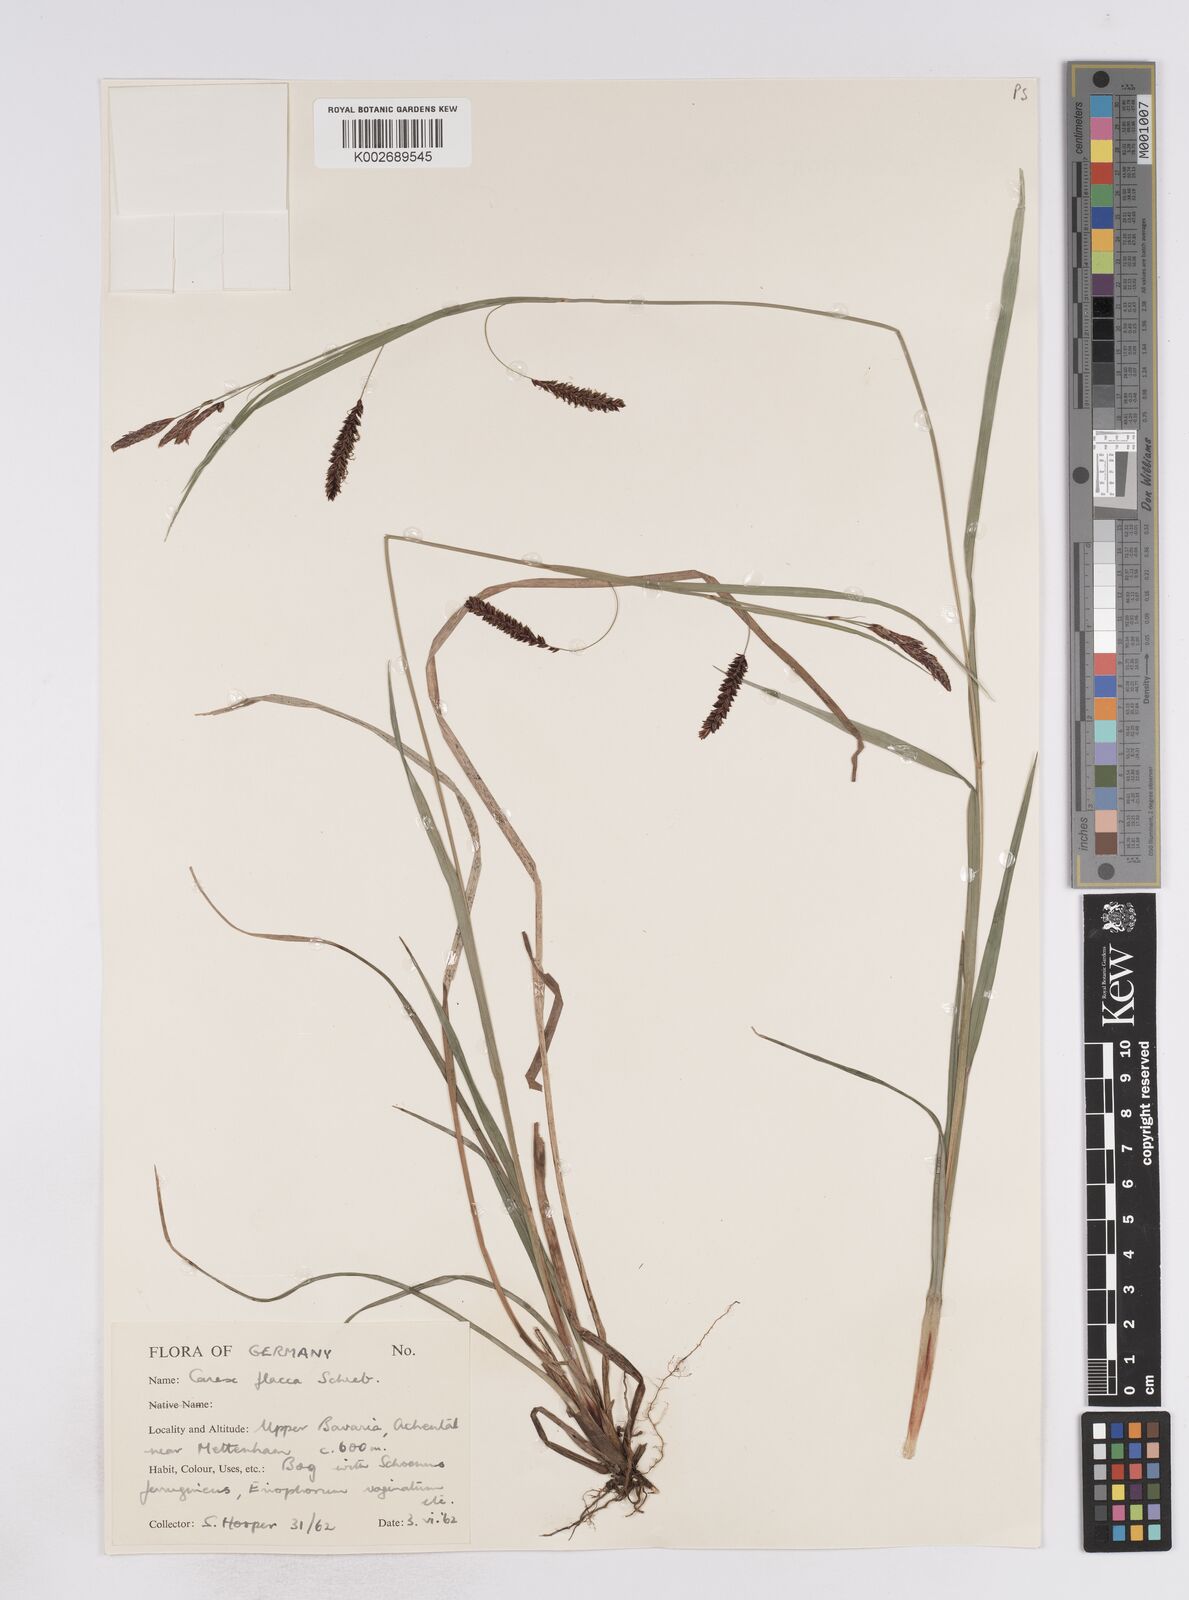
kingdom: Plantae
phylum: Tracheophyta
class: Liliopsida
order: Poales
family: Cyperaceae
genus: Carex
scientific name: Carex flacca
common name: Glaucous sedge
